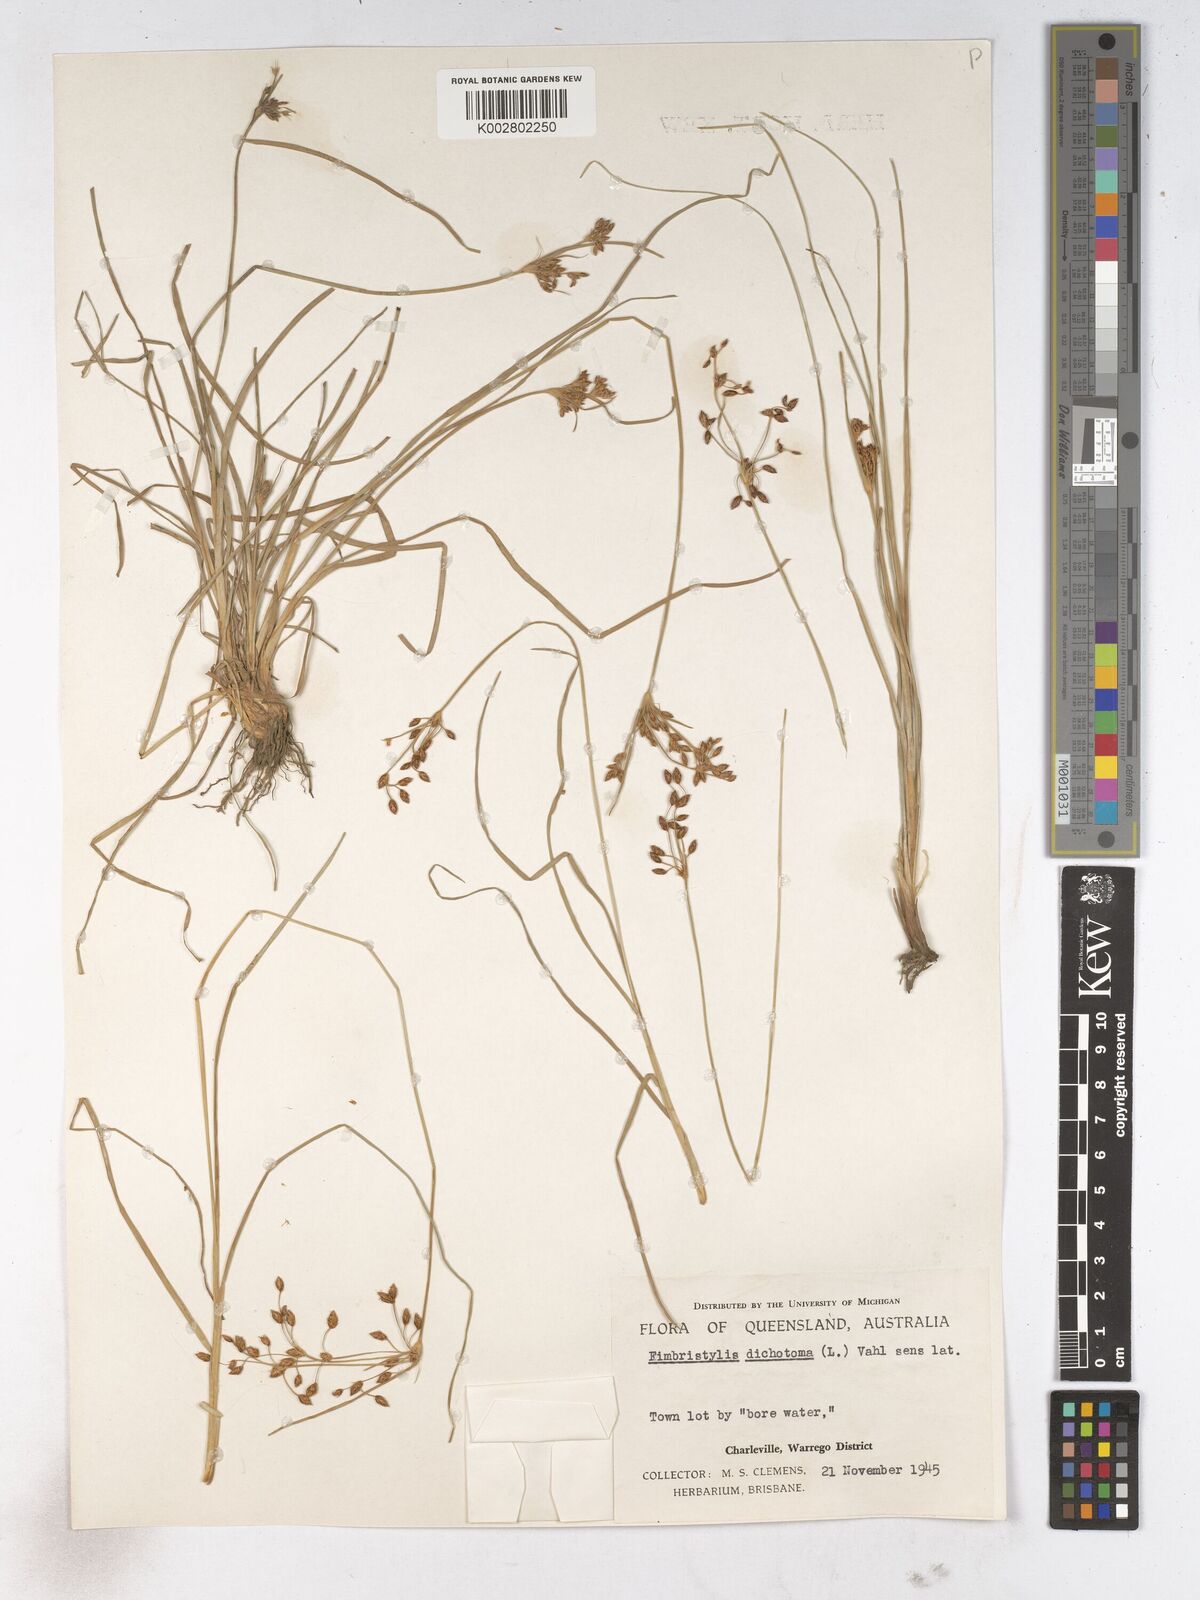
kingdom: Plantae
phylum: Tracheophyta
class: Liliopsida
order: Poales
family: Cyperaceae
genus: Fimbristylis
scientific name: Fimbristylis dichotoma
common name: Forked fimbry
